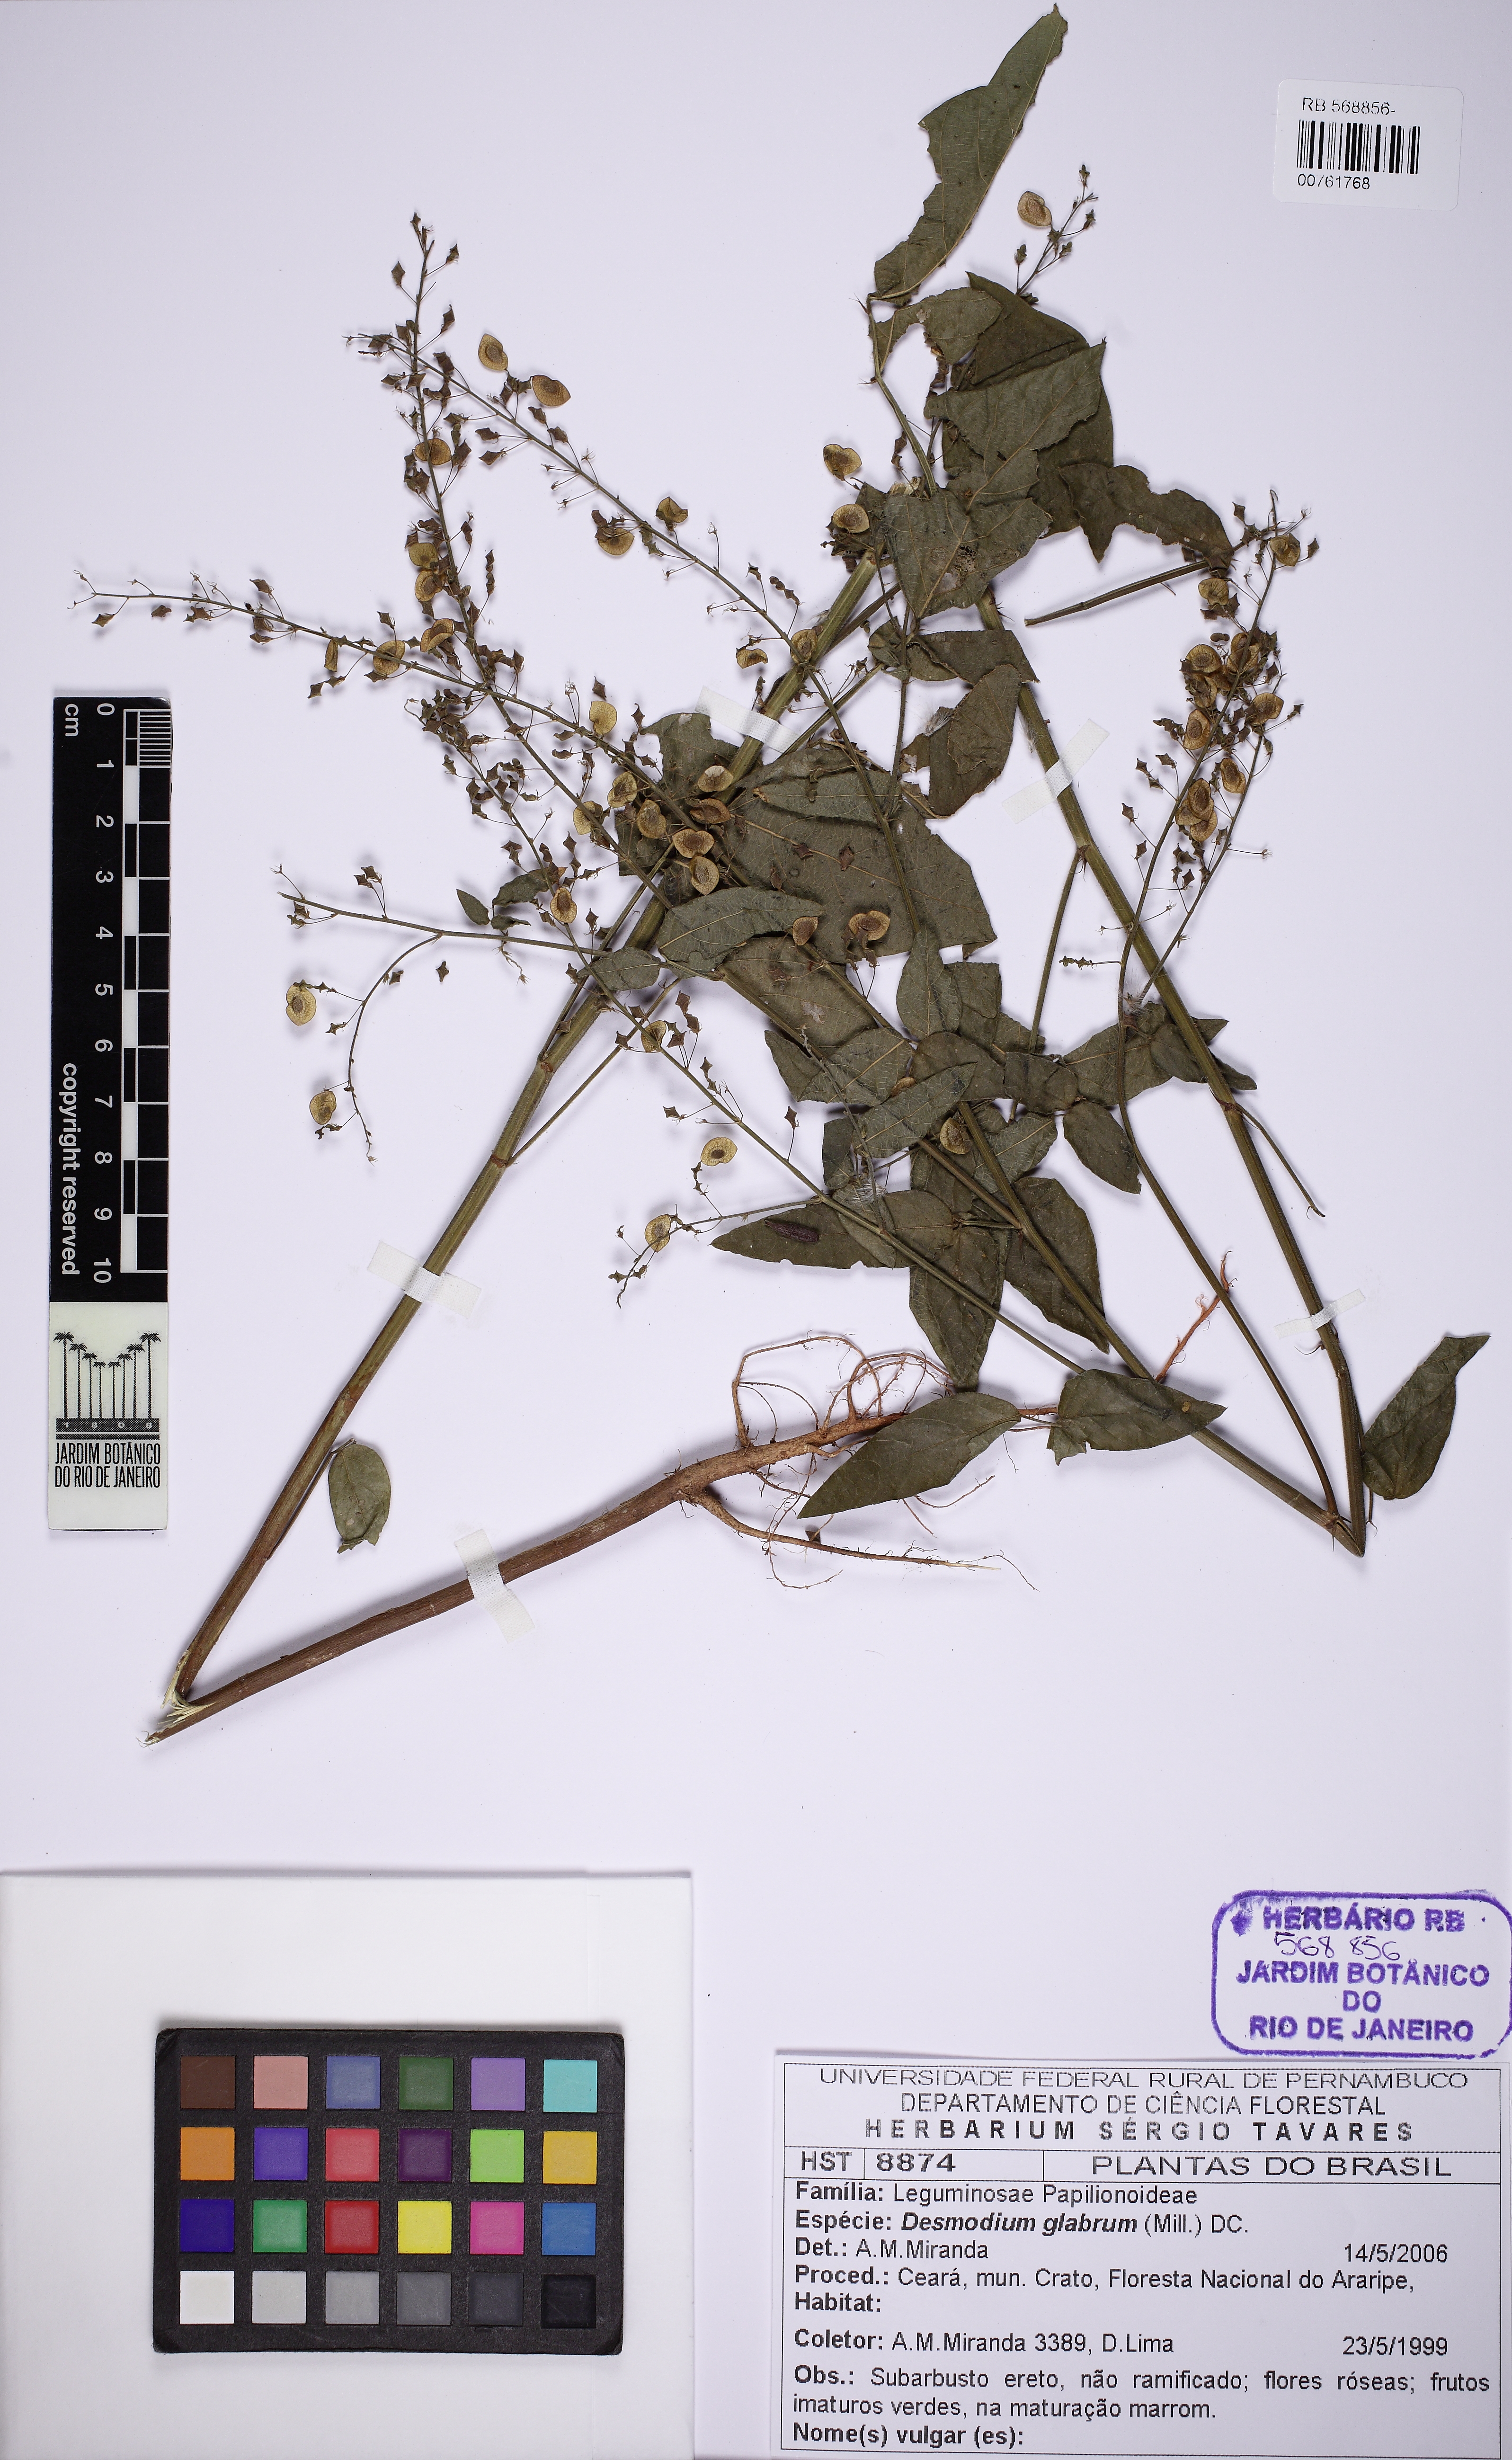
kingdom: Plantae
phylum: Tracheophyta
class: Magnoliopsida
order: Fabales
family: Fabaceae
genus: Desmodium
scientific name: Desmodium glabrum
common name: Zarzabacoa dulce
